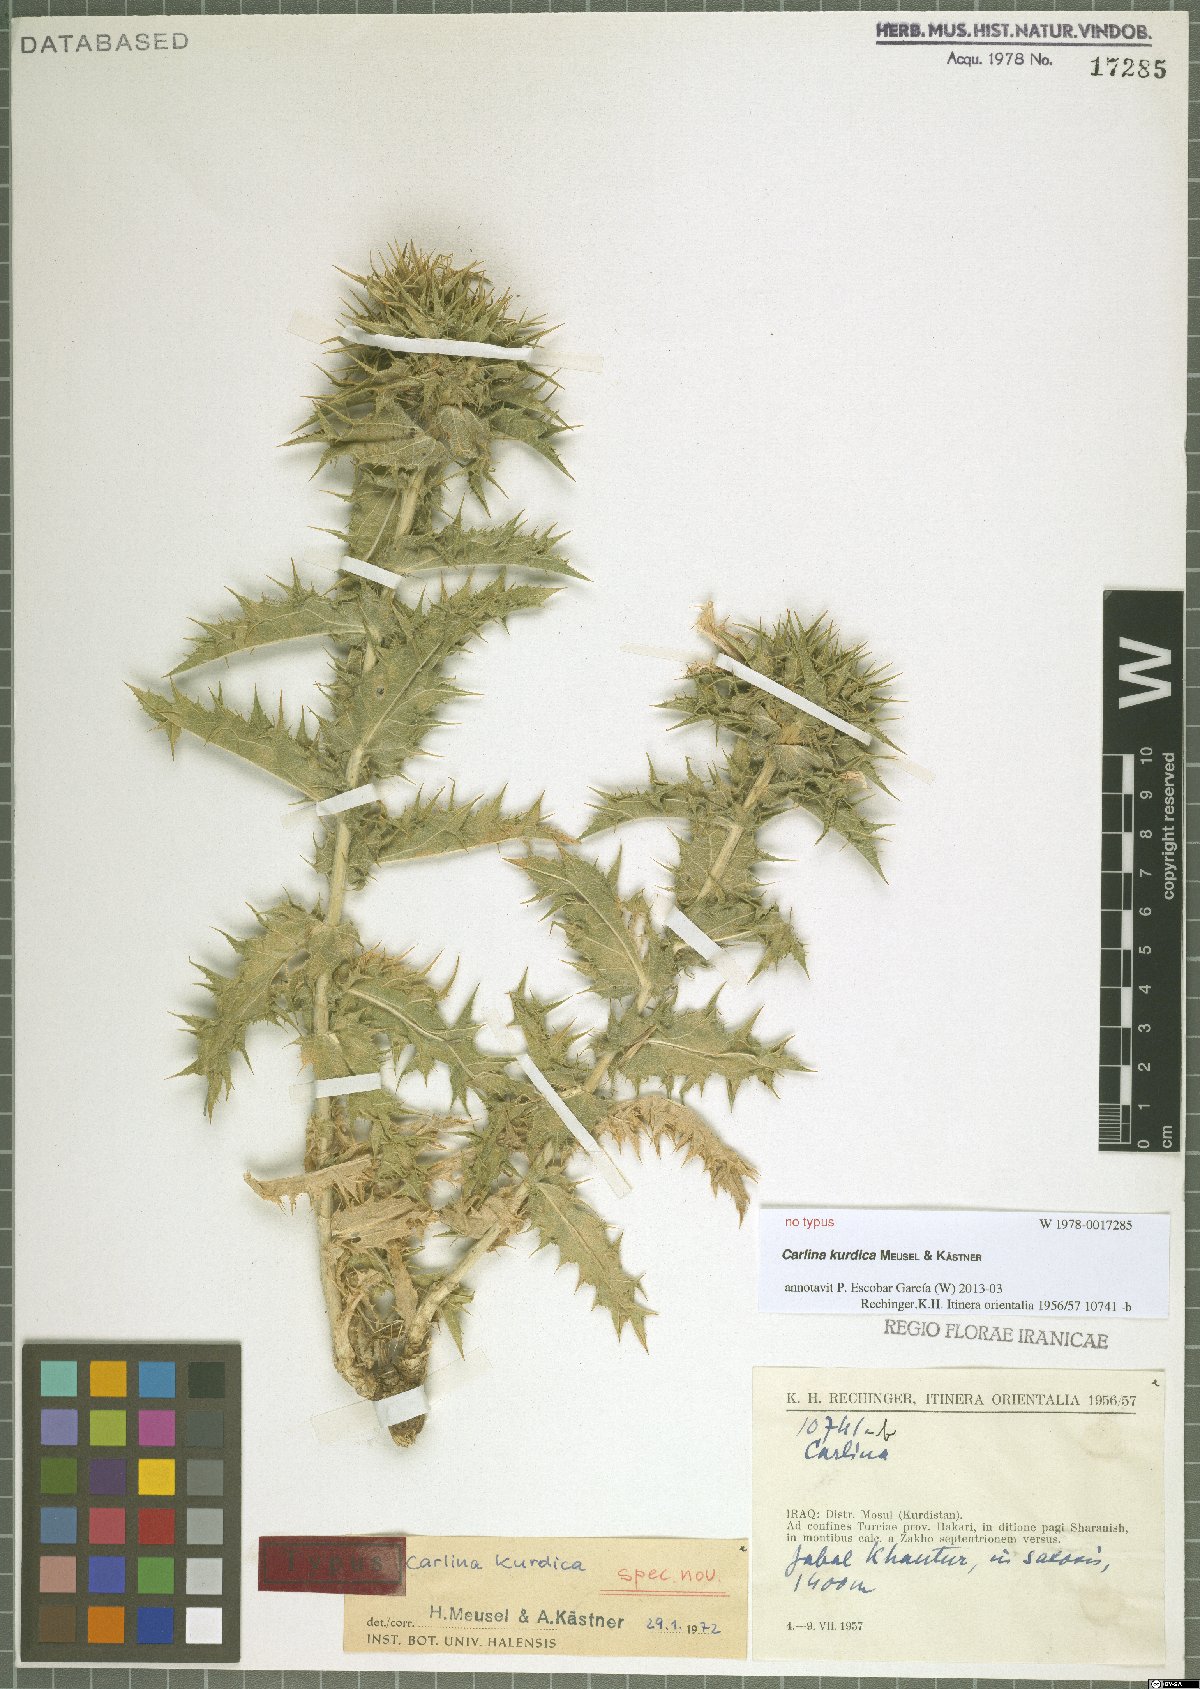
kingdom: Plantae
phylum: Tracheophyta
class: Magnoliopsida
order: Asterales
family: Asteraceae
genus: Carlina
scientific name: Carlina kurdica
